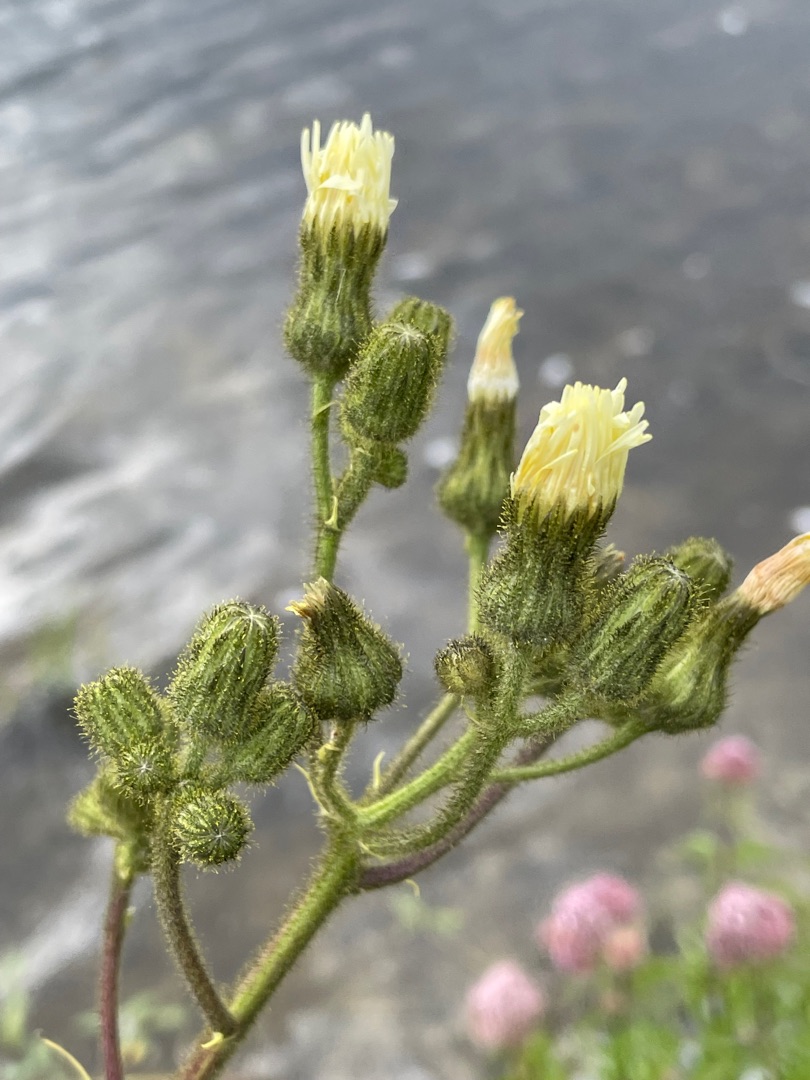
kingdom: Plantae
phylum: Tracheophyta
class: Magnoliopsida
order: Asterales
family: Asteraceae
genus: Sonchus
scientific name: Sonchus palustris
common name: Kær-svinemælk
